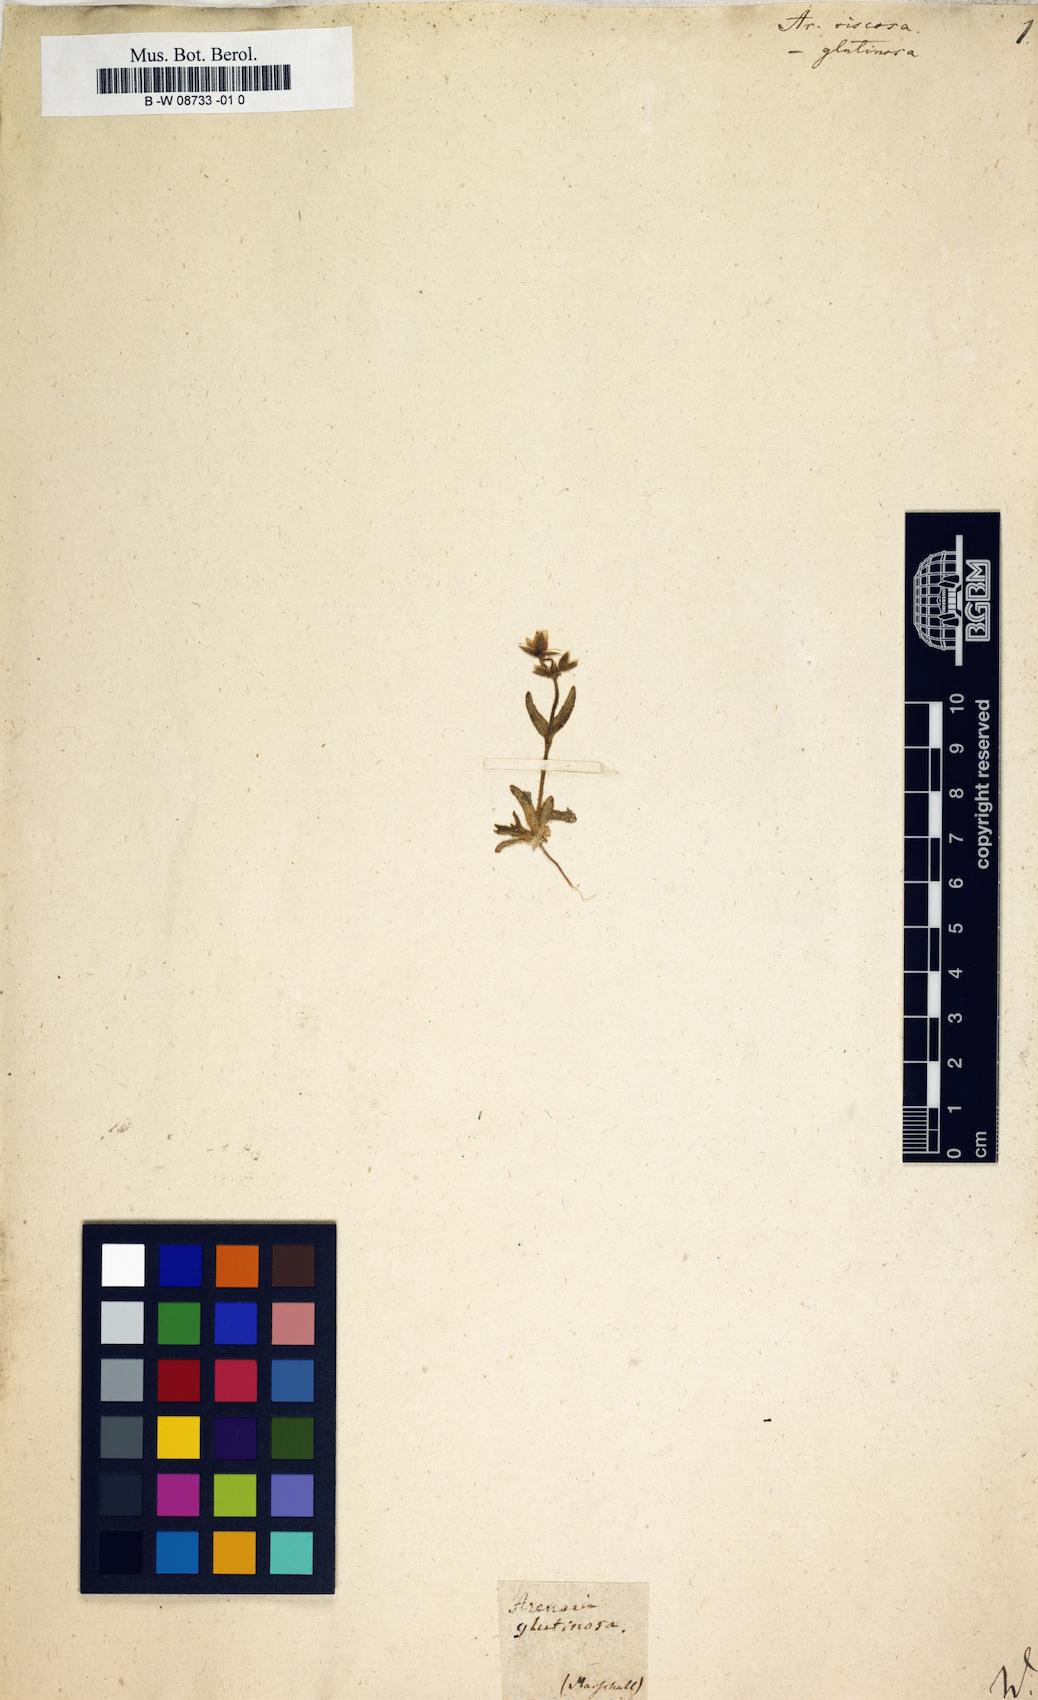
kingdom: Plantae
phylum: Tracheophyta
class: Magnoliopsida
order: Caryophyllales
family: Caryophyllaceae
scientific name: Caryophyllaceae
